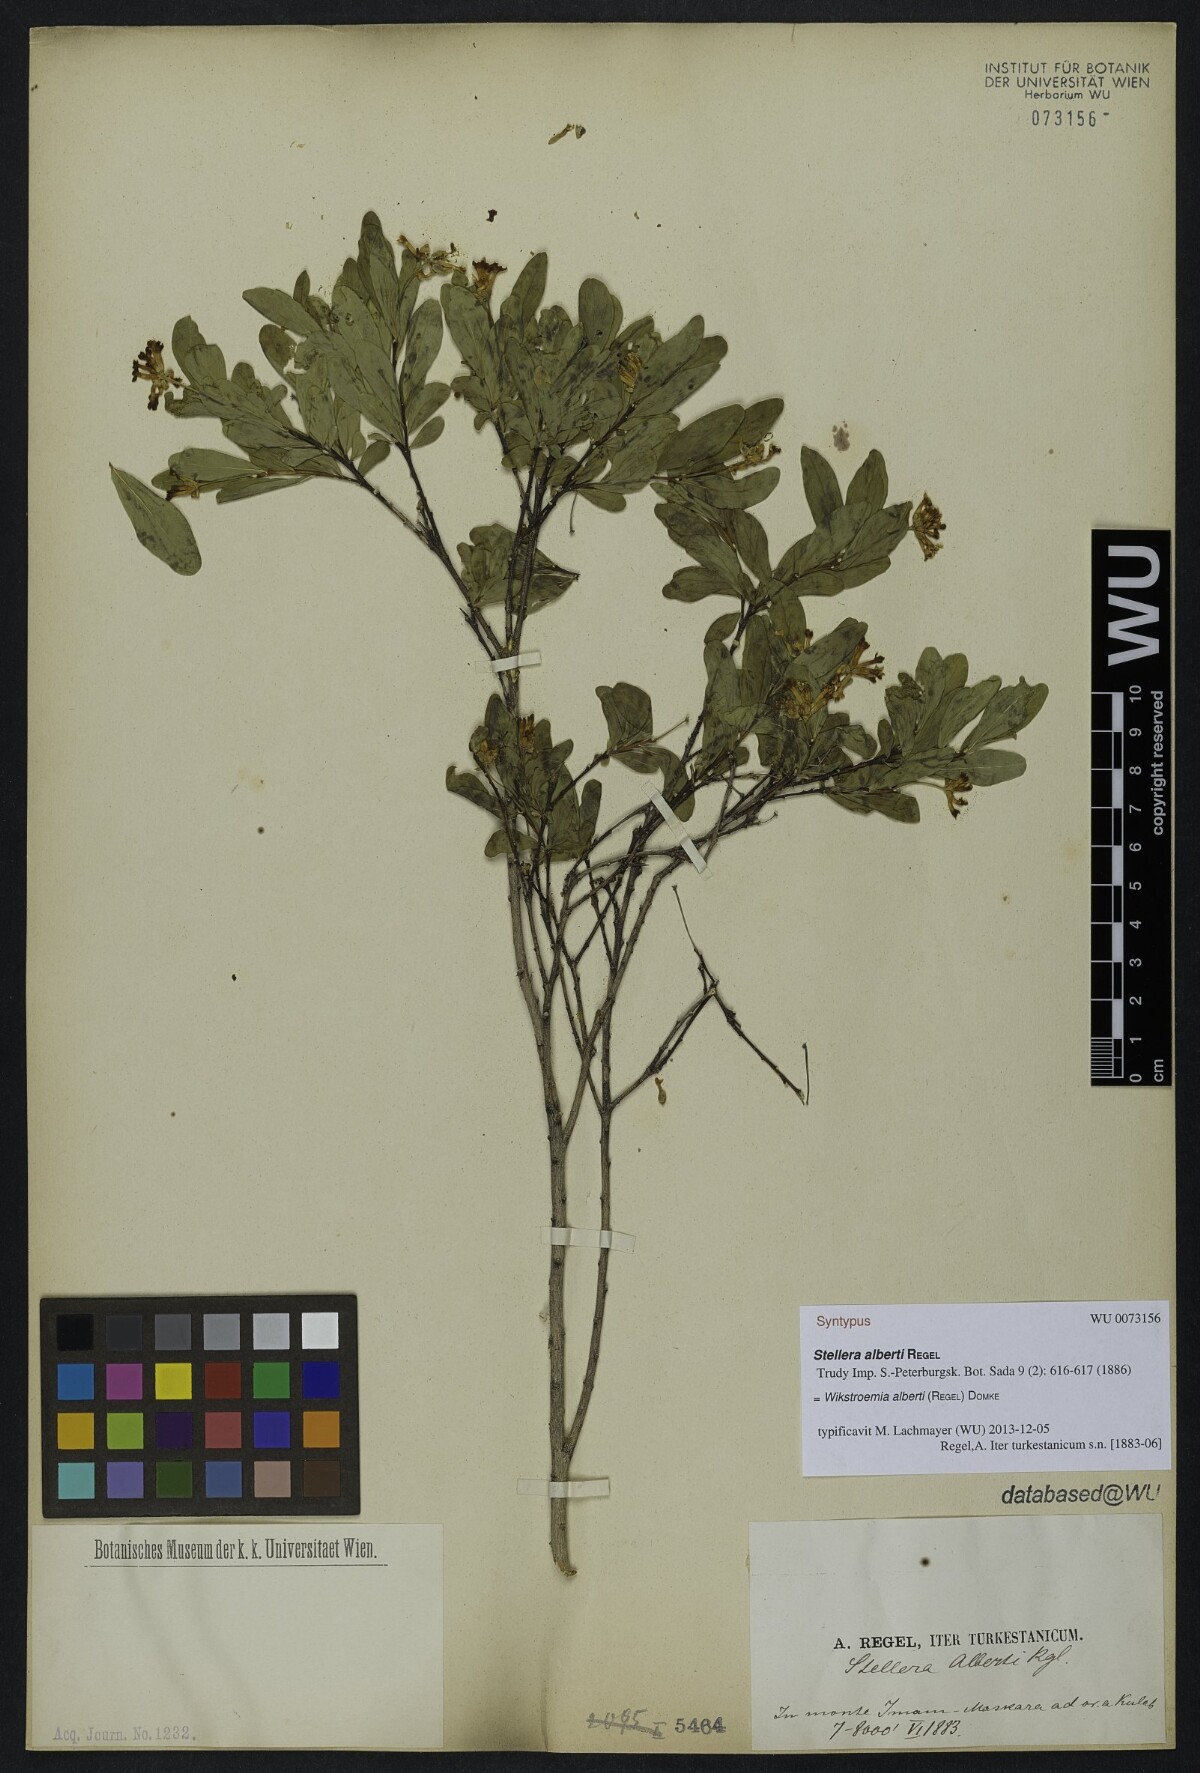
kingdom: Plantae
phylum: Tracheophyta
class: Magnoliopsida
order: Malvales
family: Thymelaeaceae
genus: Wikstroemia
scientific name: Wikstroemia alberti
